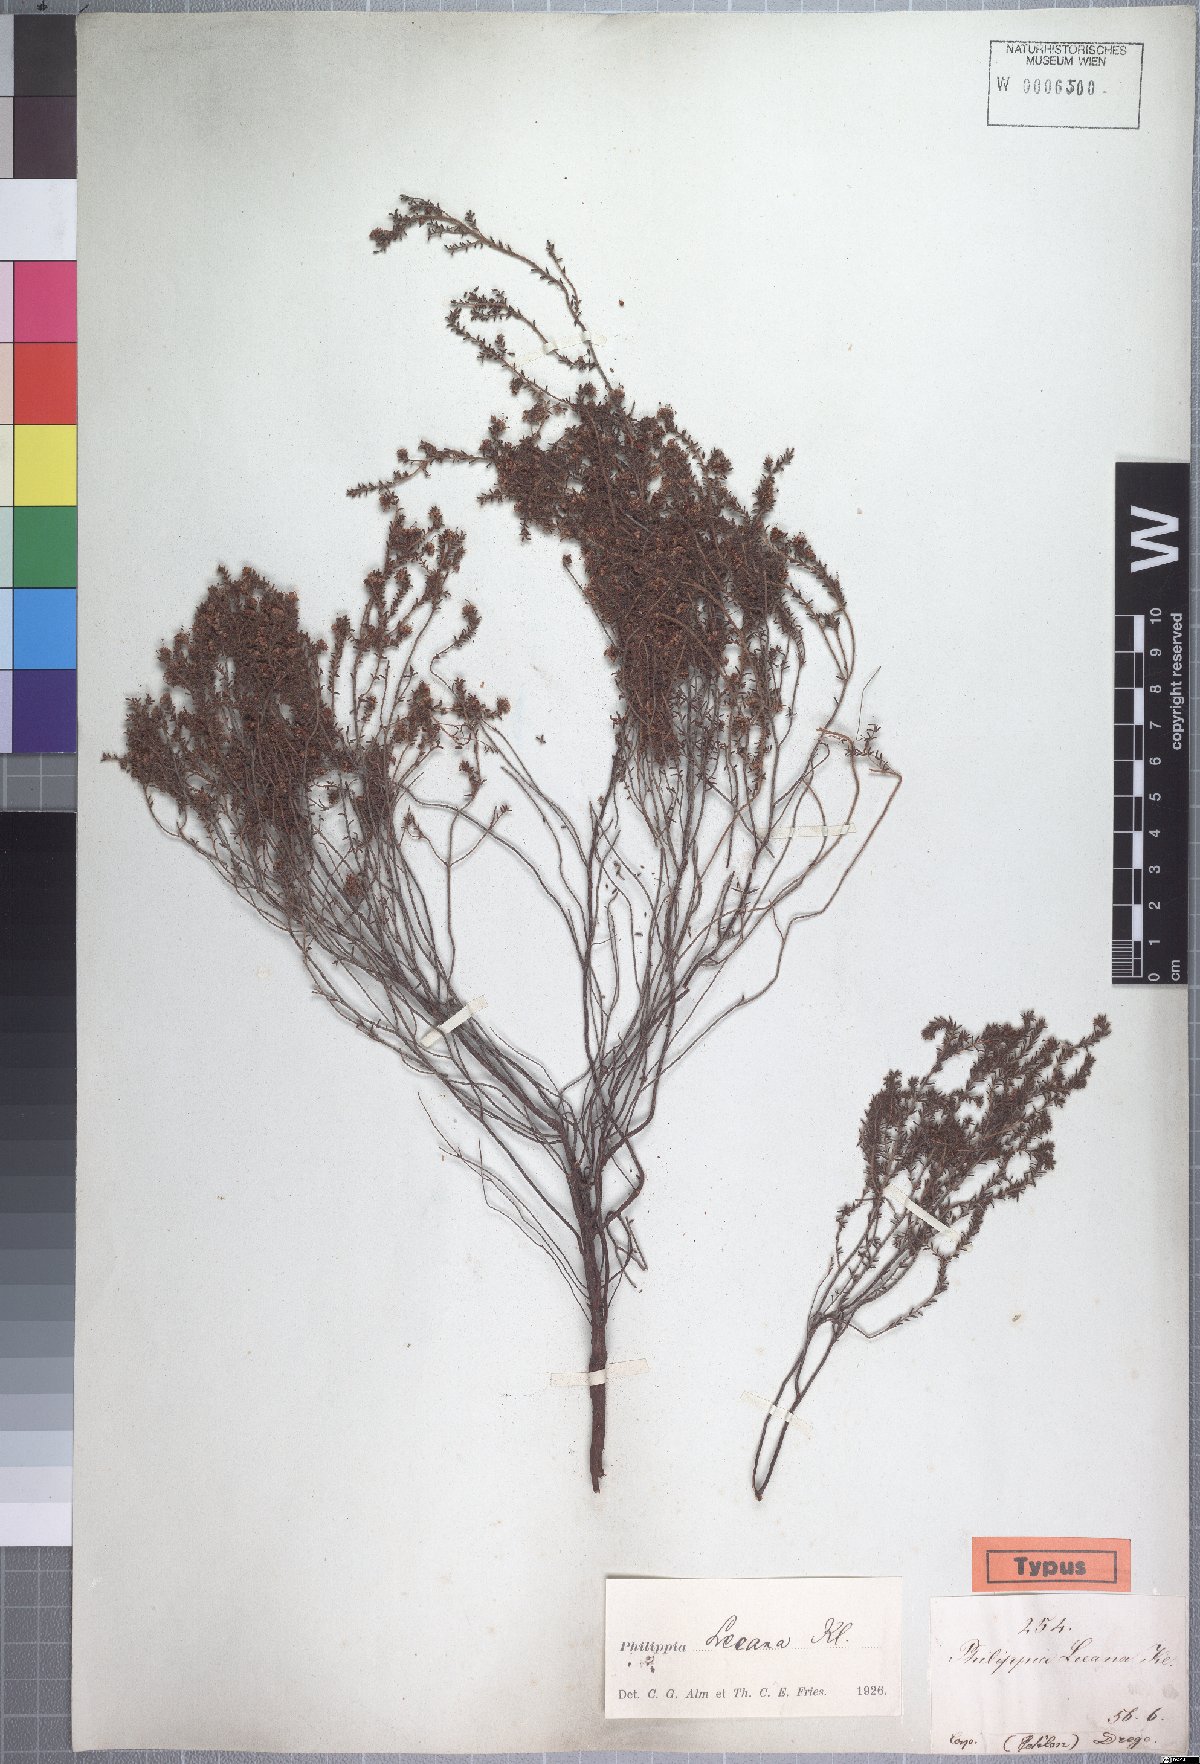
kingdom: Plantae
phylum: Tracheophyta
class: Magnoliopsida
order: Ericales
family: Ericaceae
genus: Erica
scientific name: Erica exleeana
